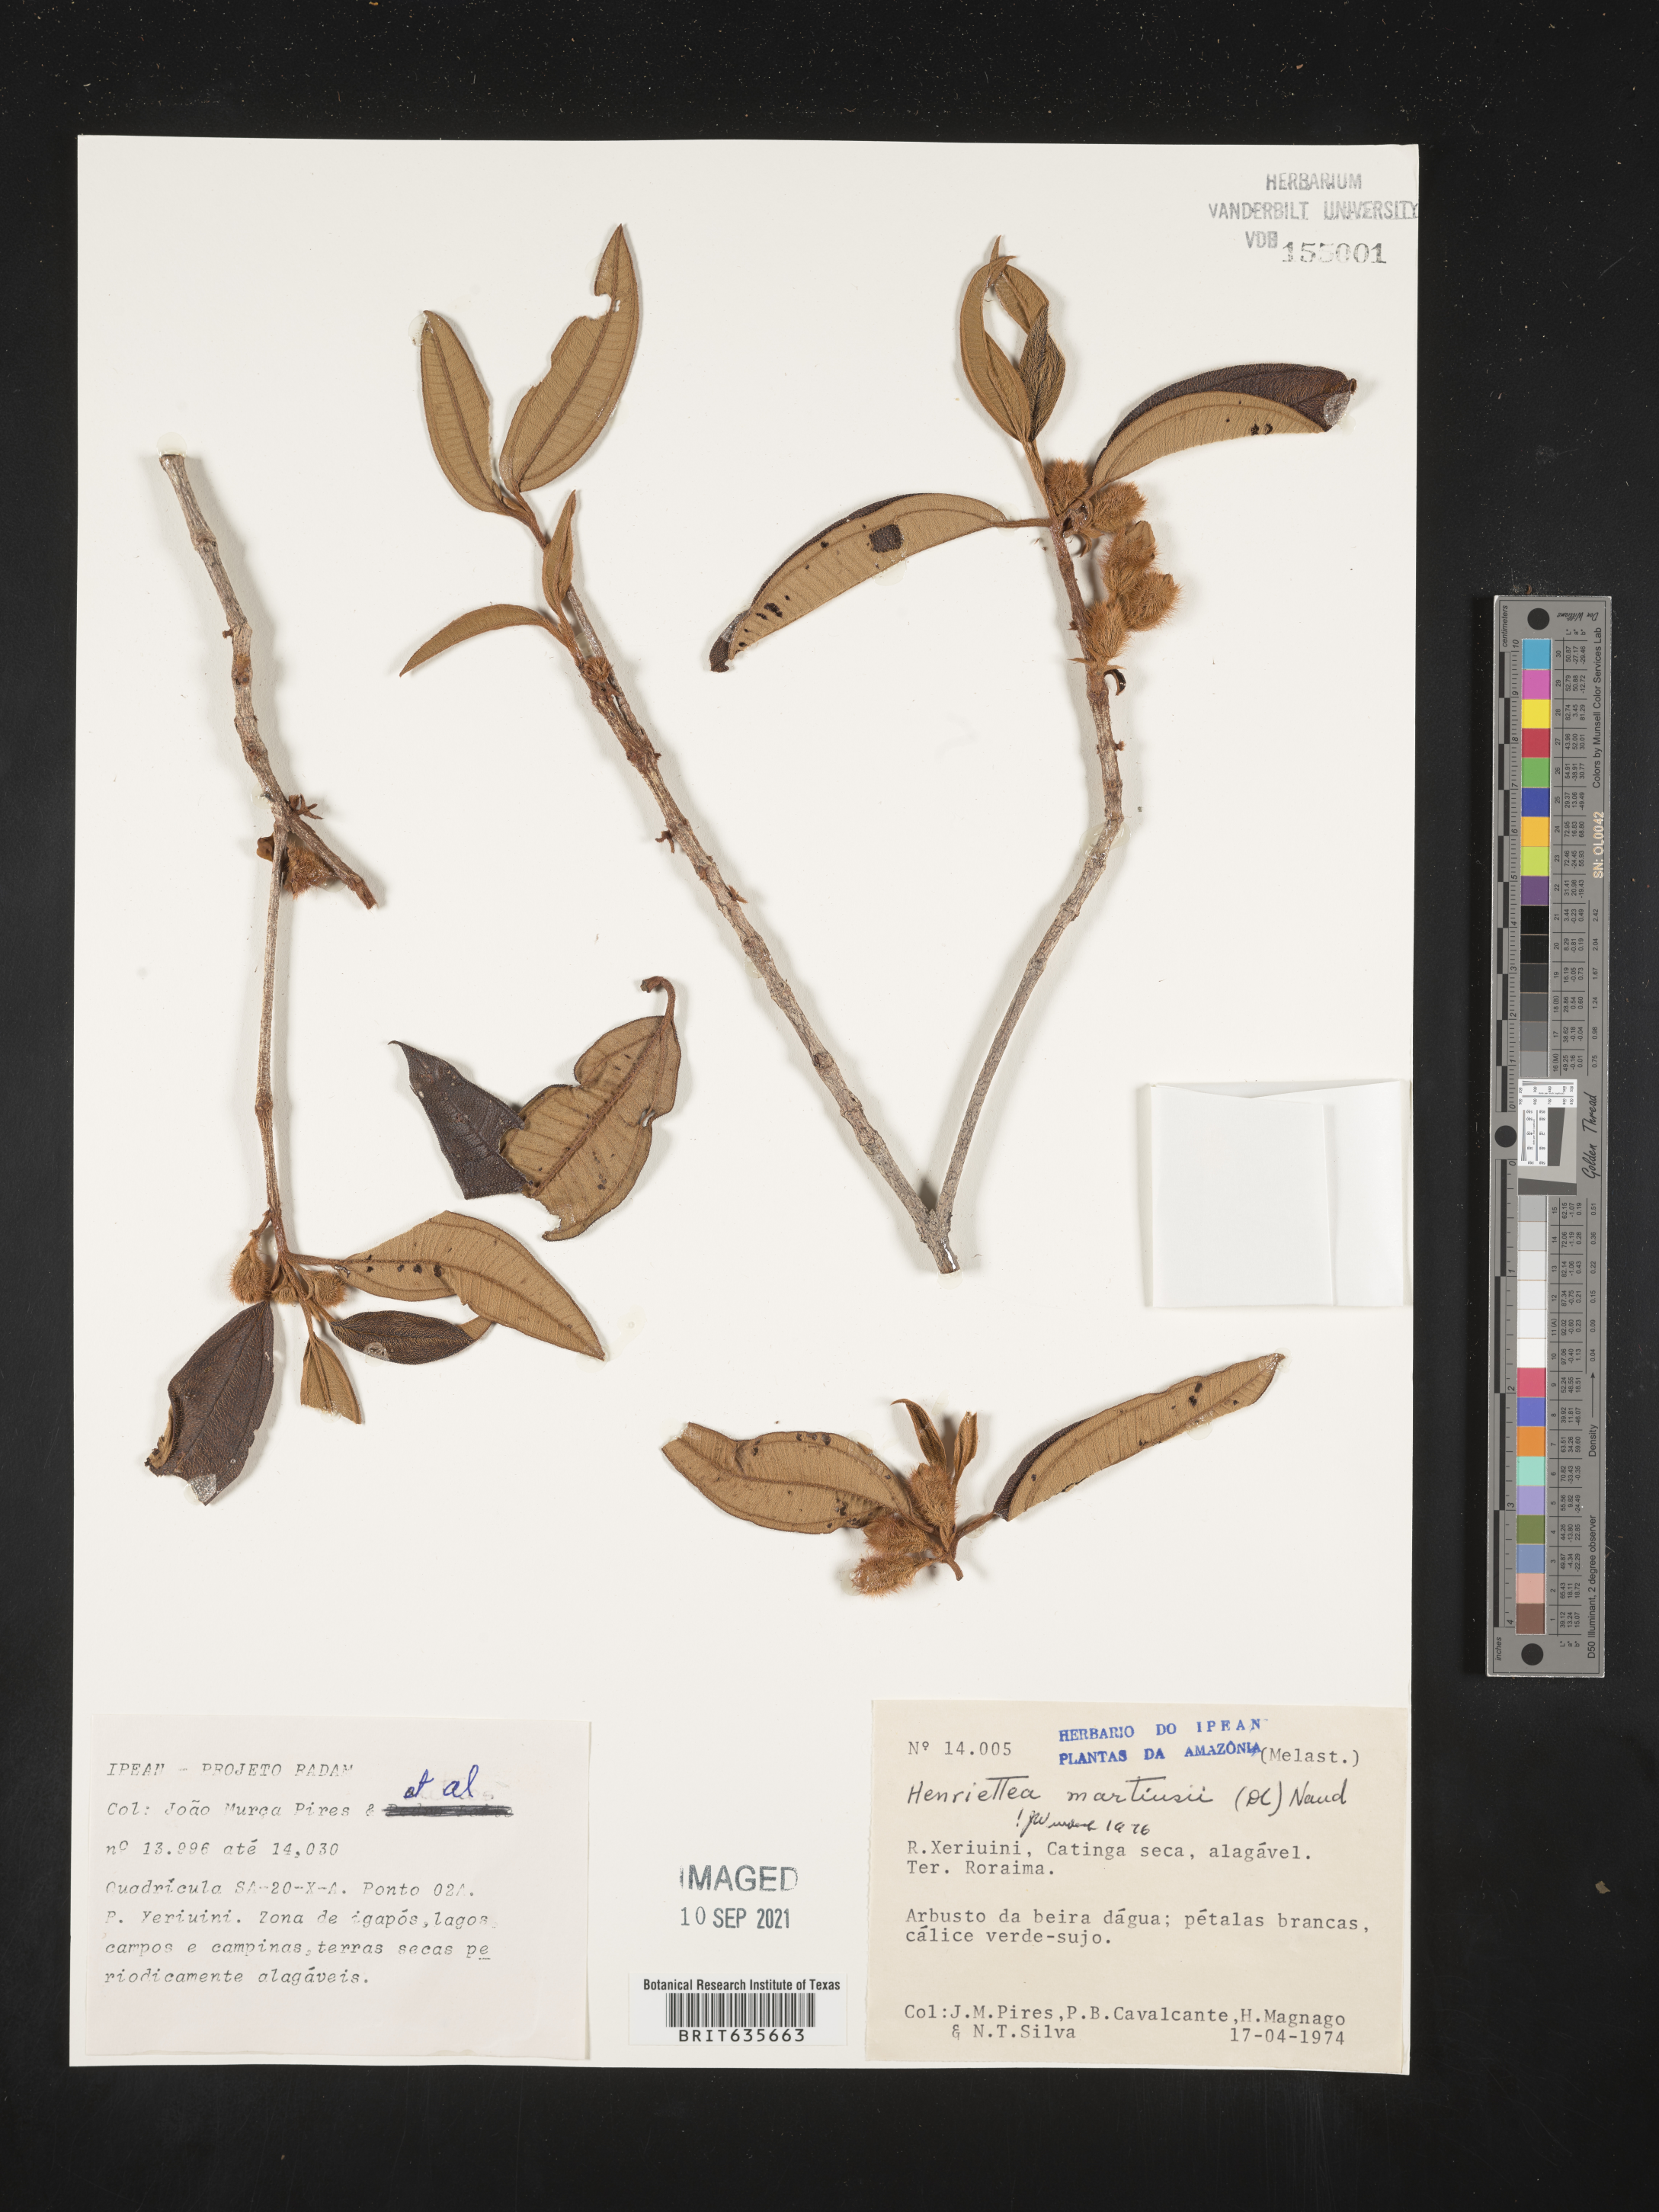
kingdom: Plantae
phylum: Tracheophyta
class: Magnoliopsida
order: Myrtales
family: Melastomataceae
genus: Henriettea
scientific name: Henriettea
